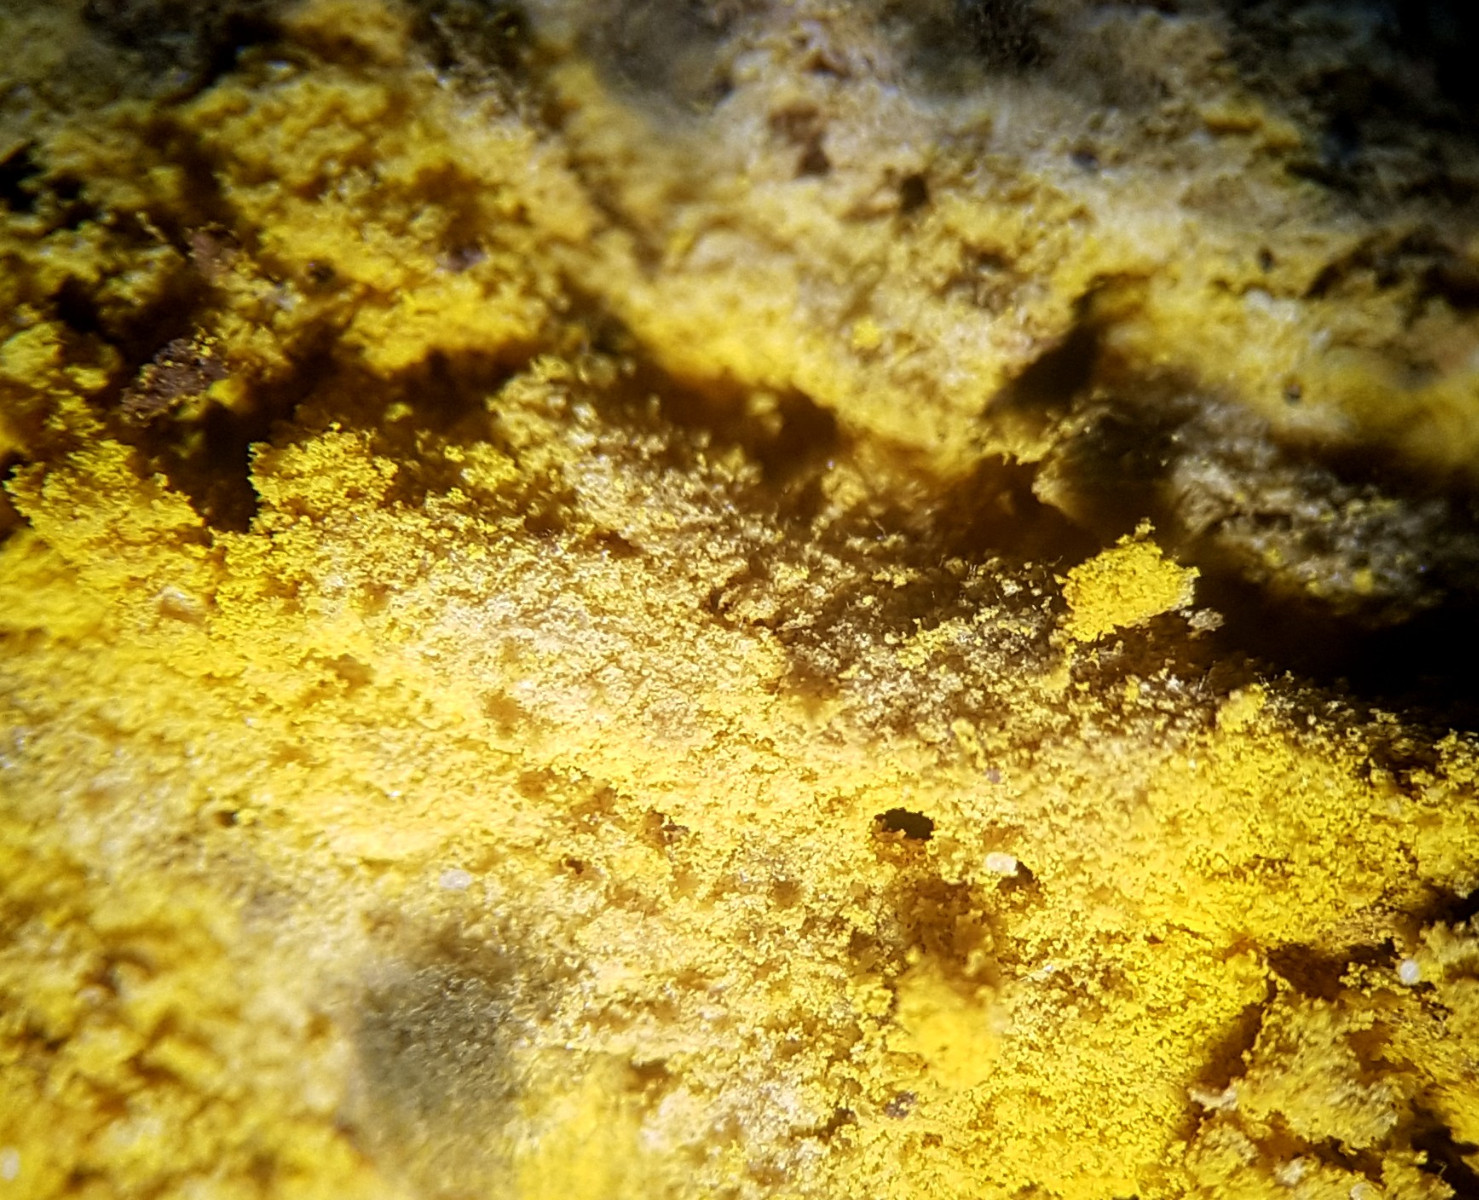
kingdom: Fungi
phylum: Ascomycota
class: Sordariomycetes
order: Hypocreales
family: Hypocreaceae
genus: Hypomyces
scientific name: Hypomyces
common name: snylteskorpe
